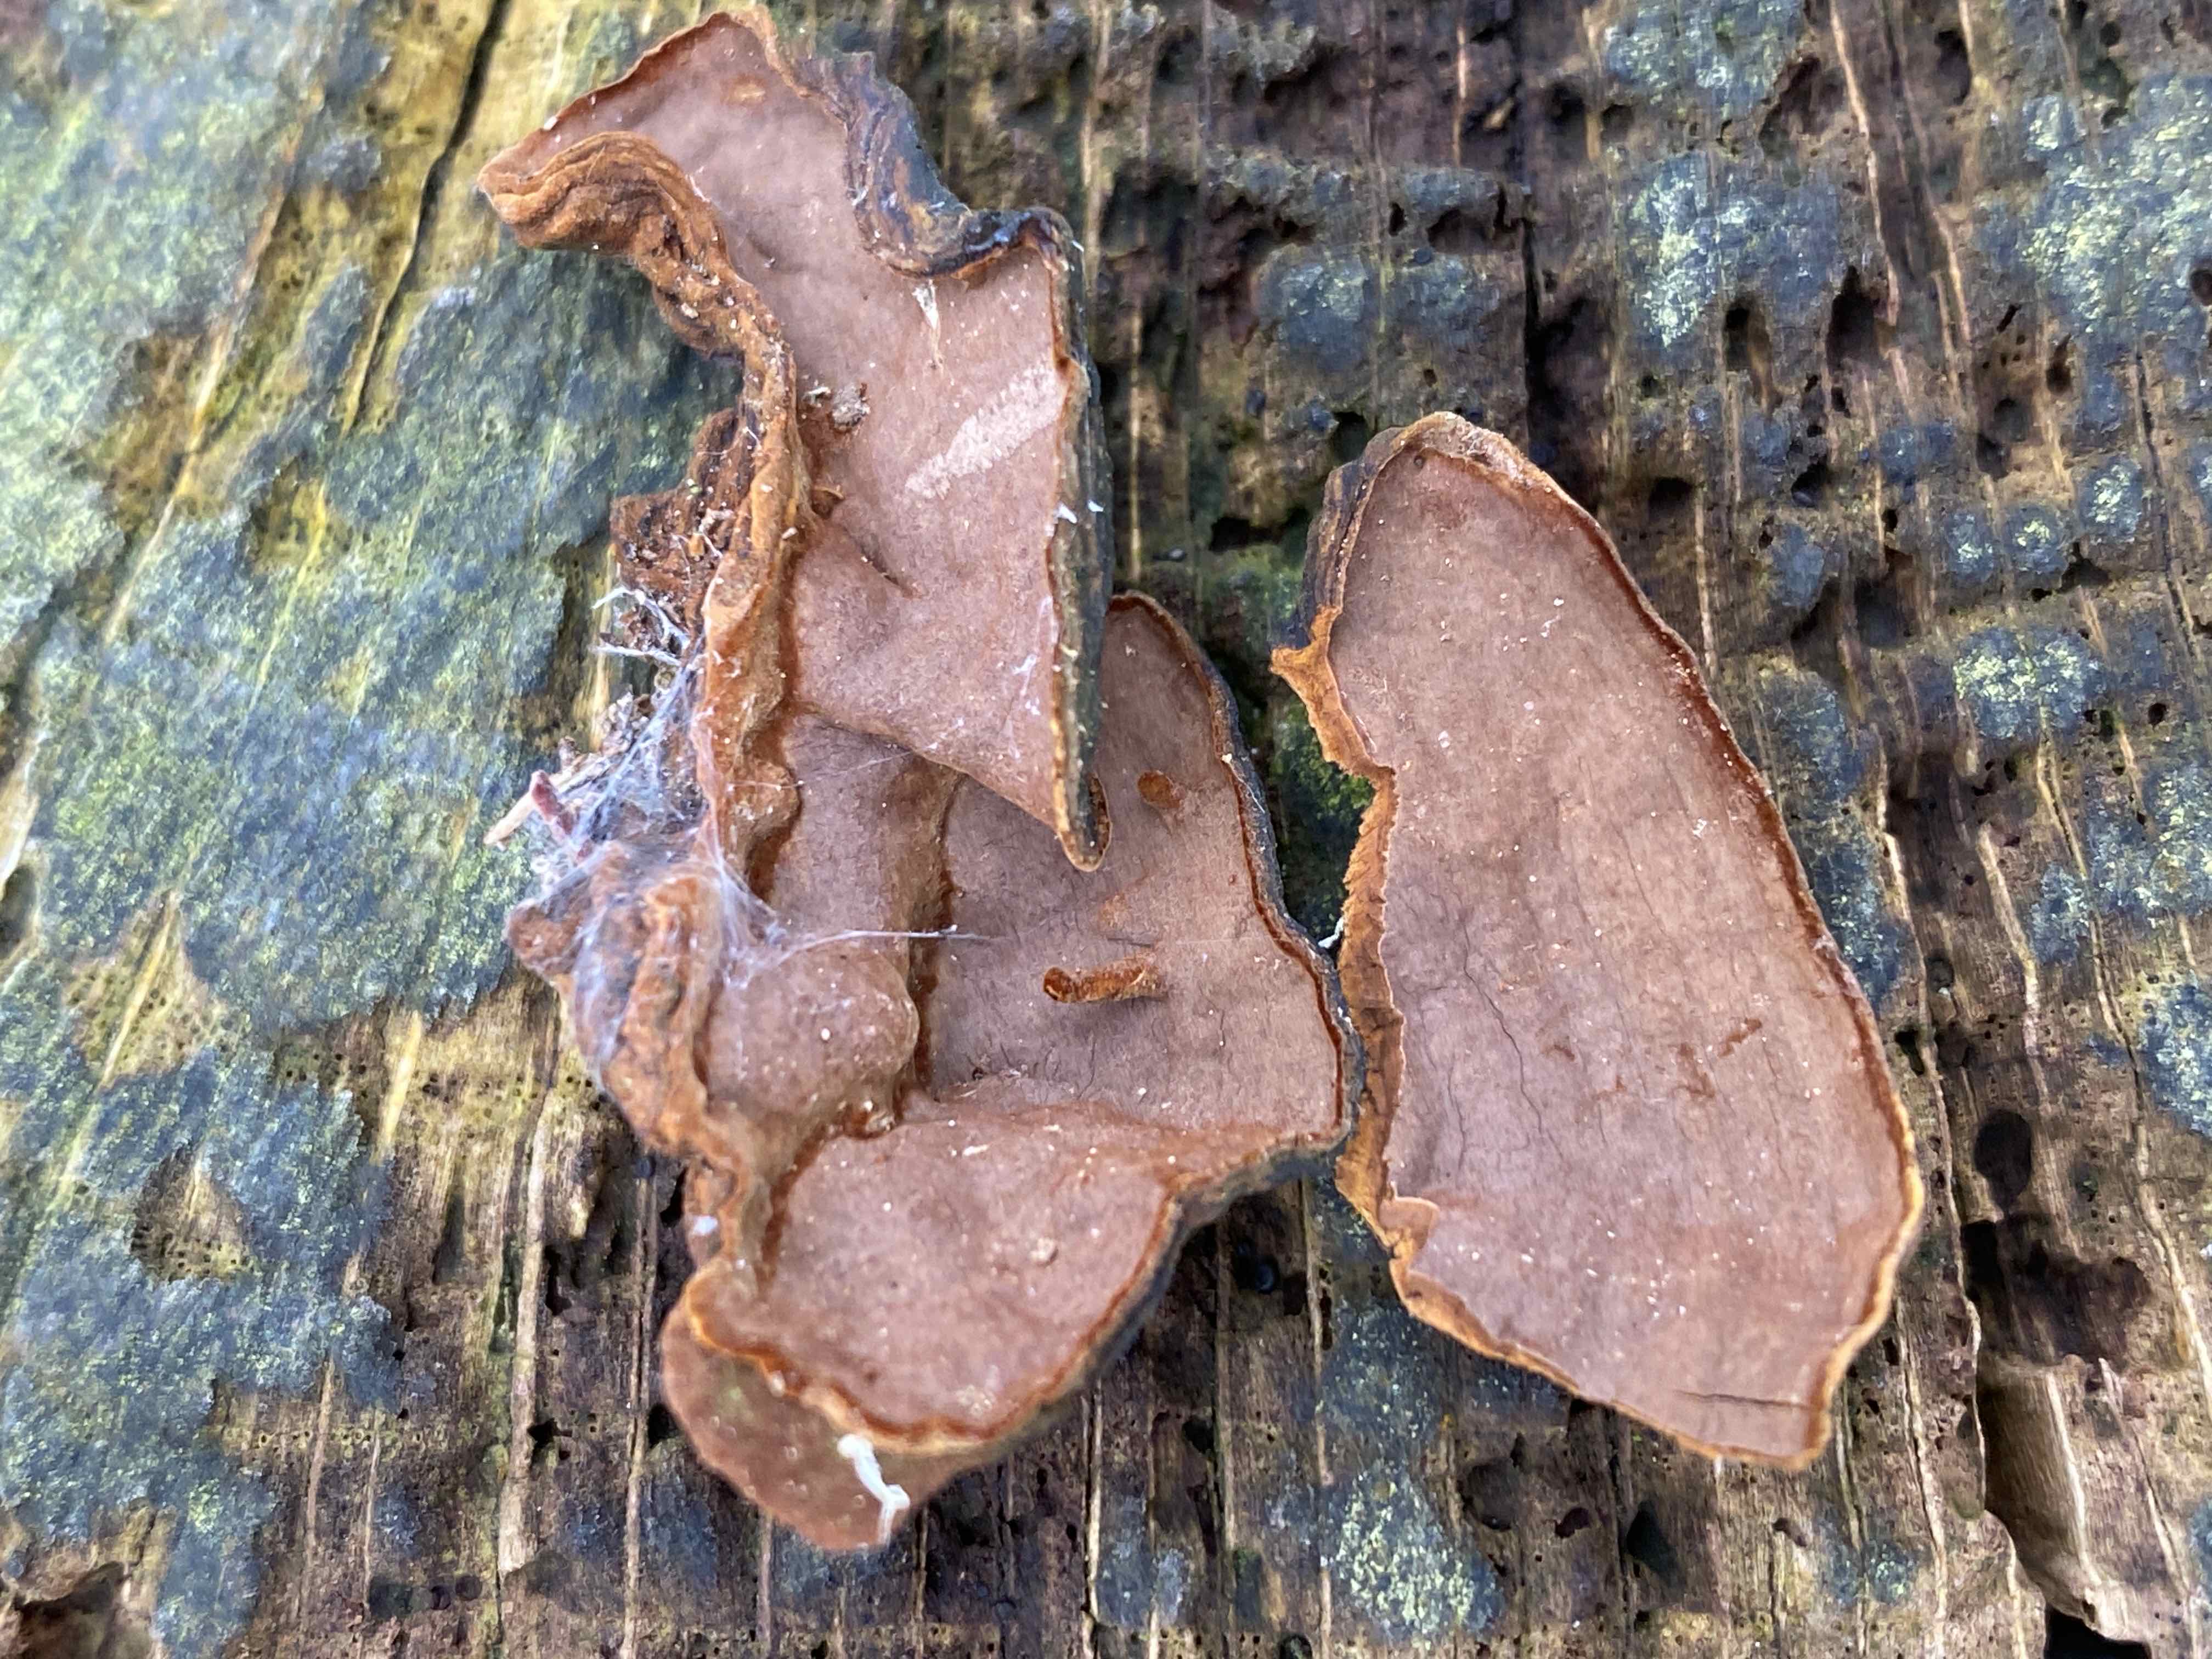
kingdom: Fungi
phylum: Basidiomycota
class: Agaricomycetes
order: Hymenochaetales
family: Hymenochaetaceae
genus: Hymenochaete
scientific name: Hymenochaete rubiginosa
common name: stiv ruslædersvamp
